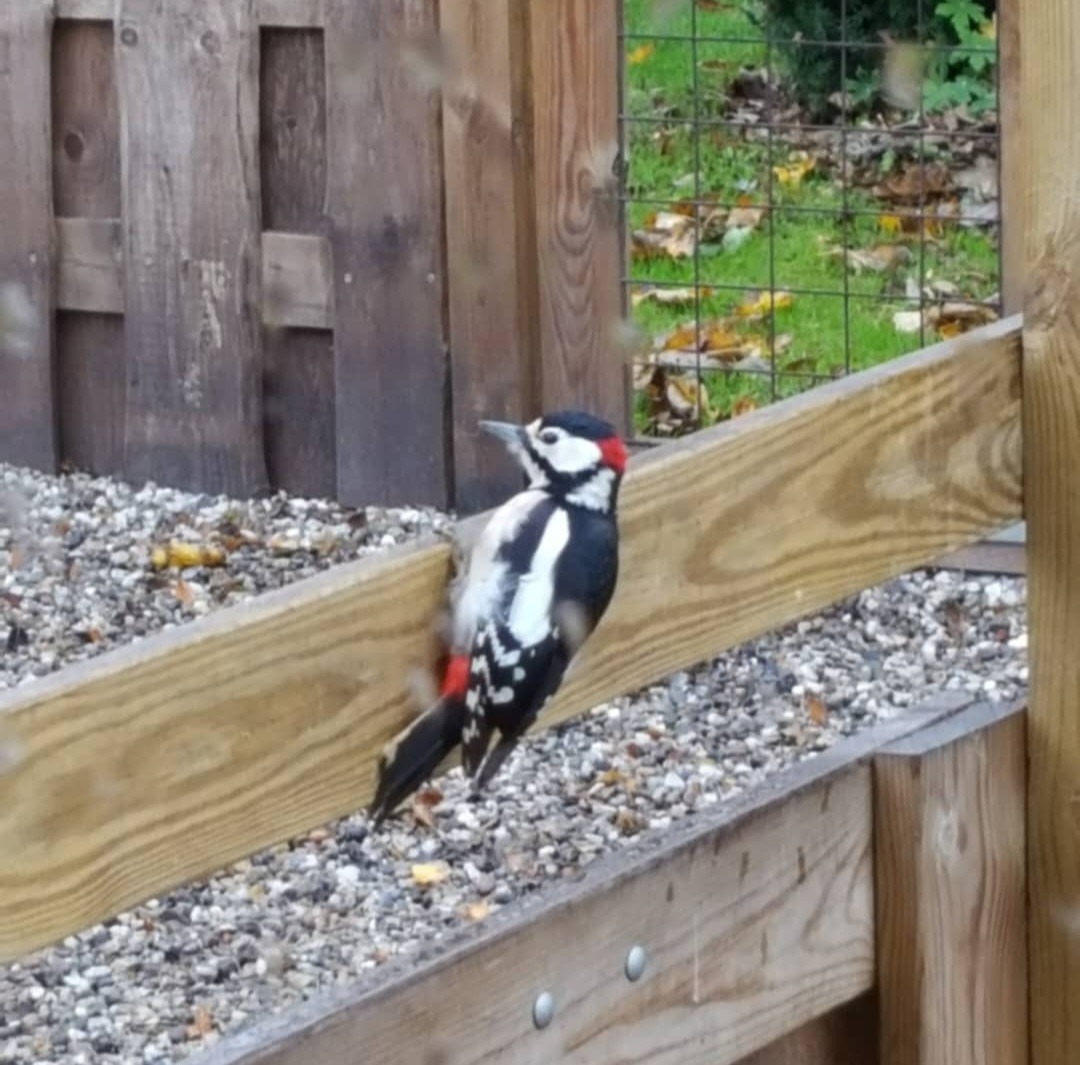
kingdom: Animalia
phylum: Chordata
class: Aves
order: Piciformes
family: Picidae
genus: Dendrocopos
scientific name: Dendrocopos major
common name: Stor flagspætte
